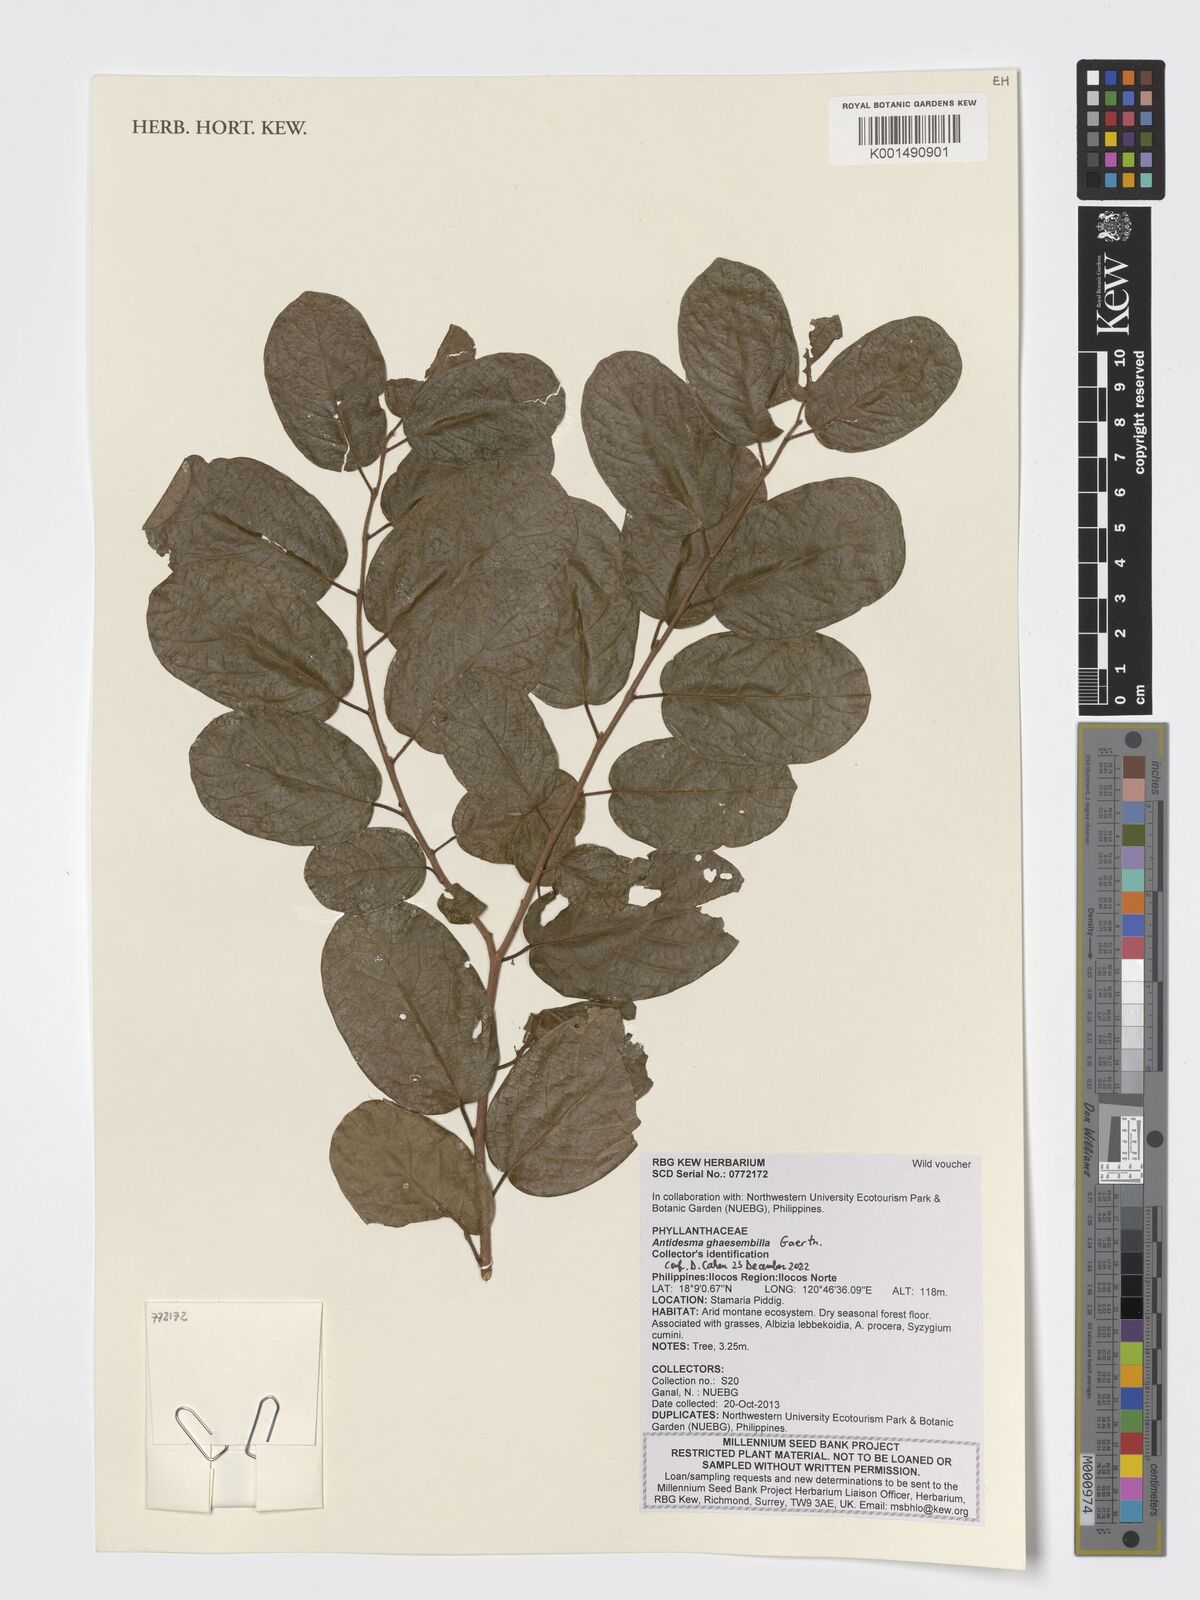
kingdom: Plantae
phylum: Tracheophyta
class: Magnoliopsida
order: Malpighiales
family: Phyllanthaceae
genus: Antidesma
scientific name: Antidesma ghaesembilla
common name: Black currant-tree
